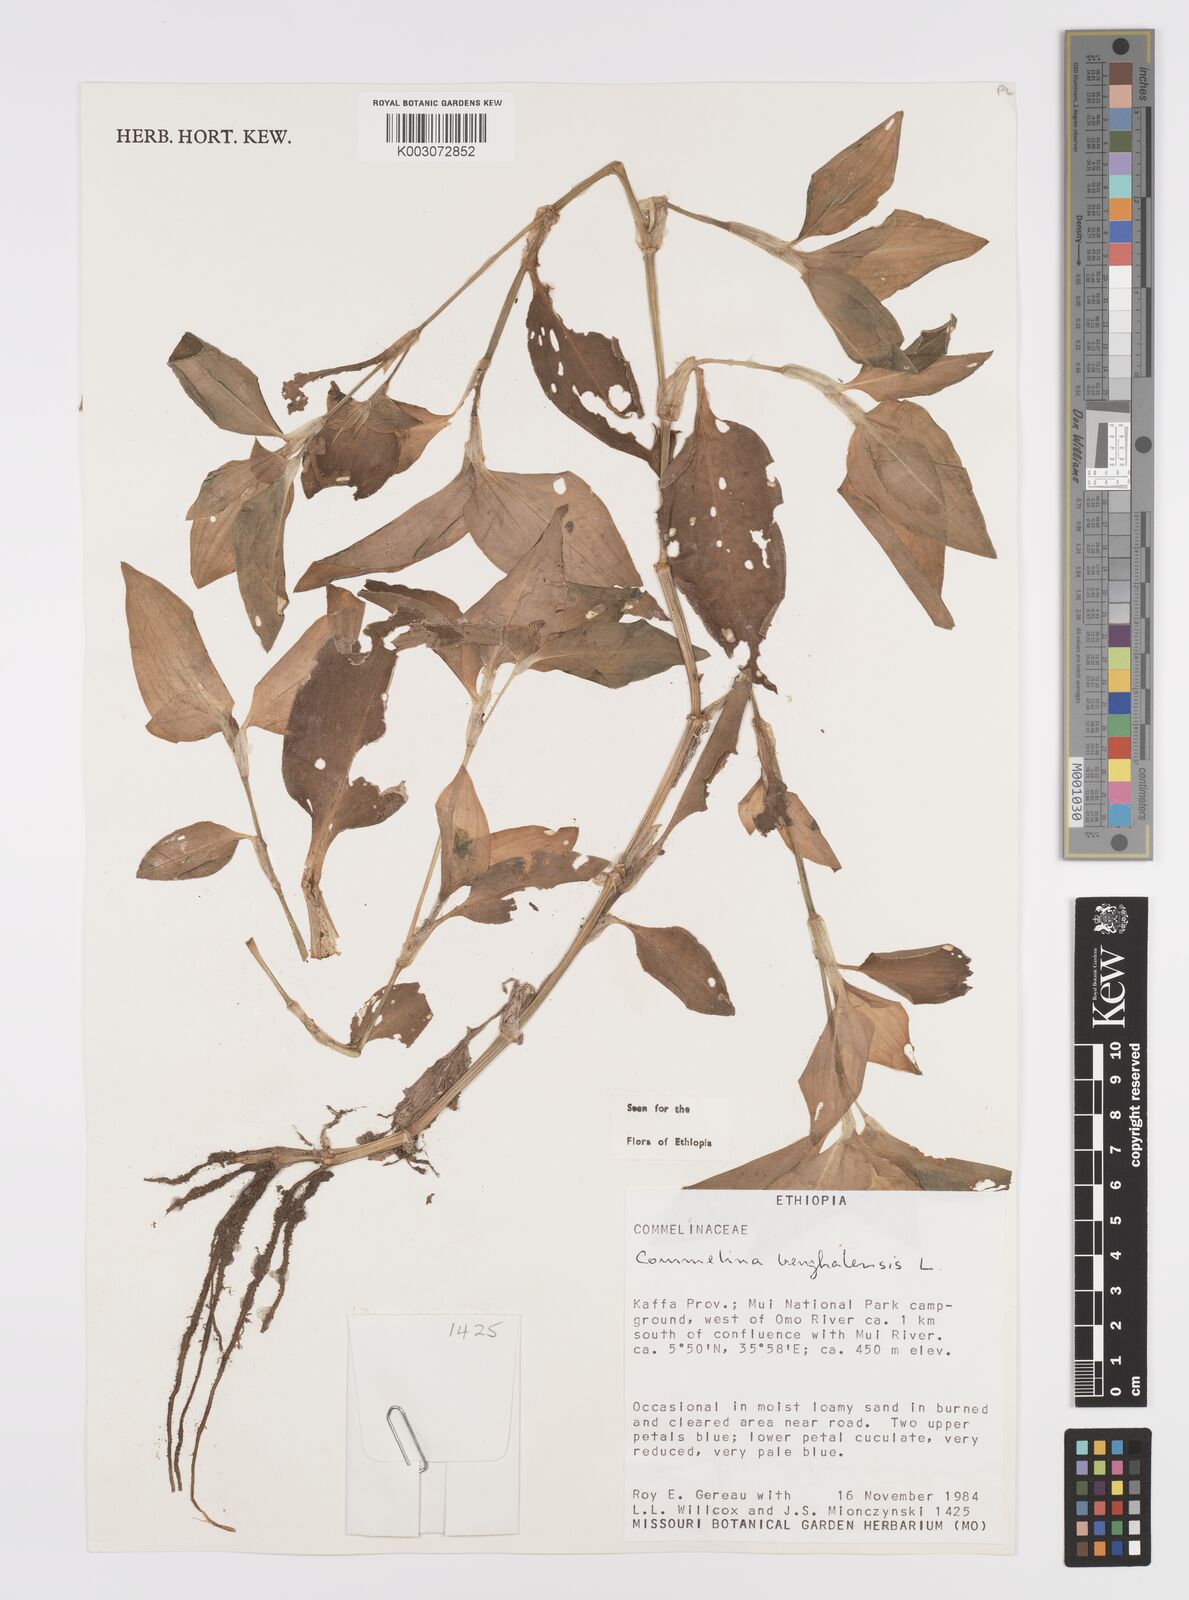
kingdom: Plantae
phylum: Tracheophyta
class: Liliopsida
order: Commelinales
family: Commelinaceae
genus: Commelina
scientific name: Commelina benghalensis
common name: Jio
